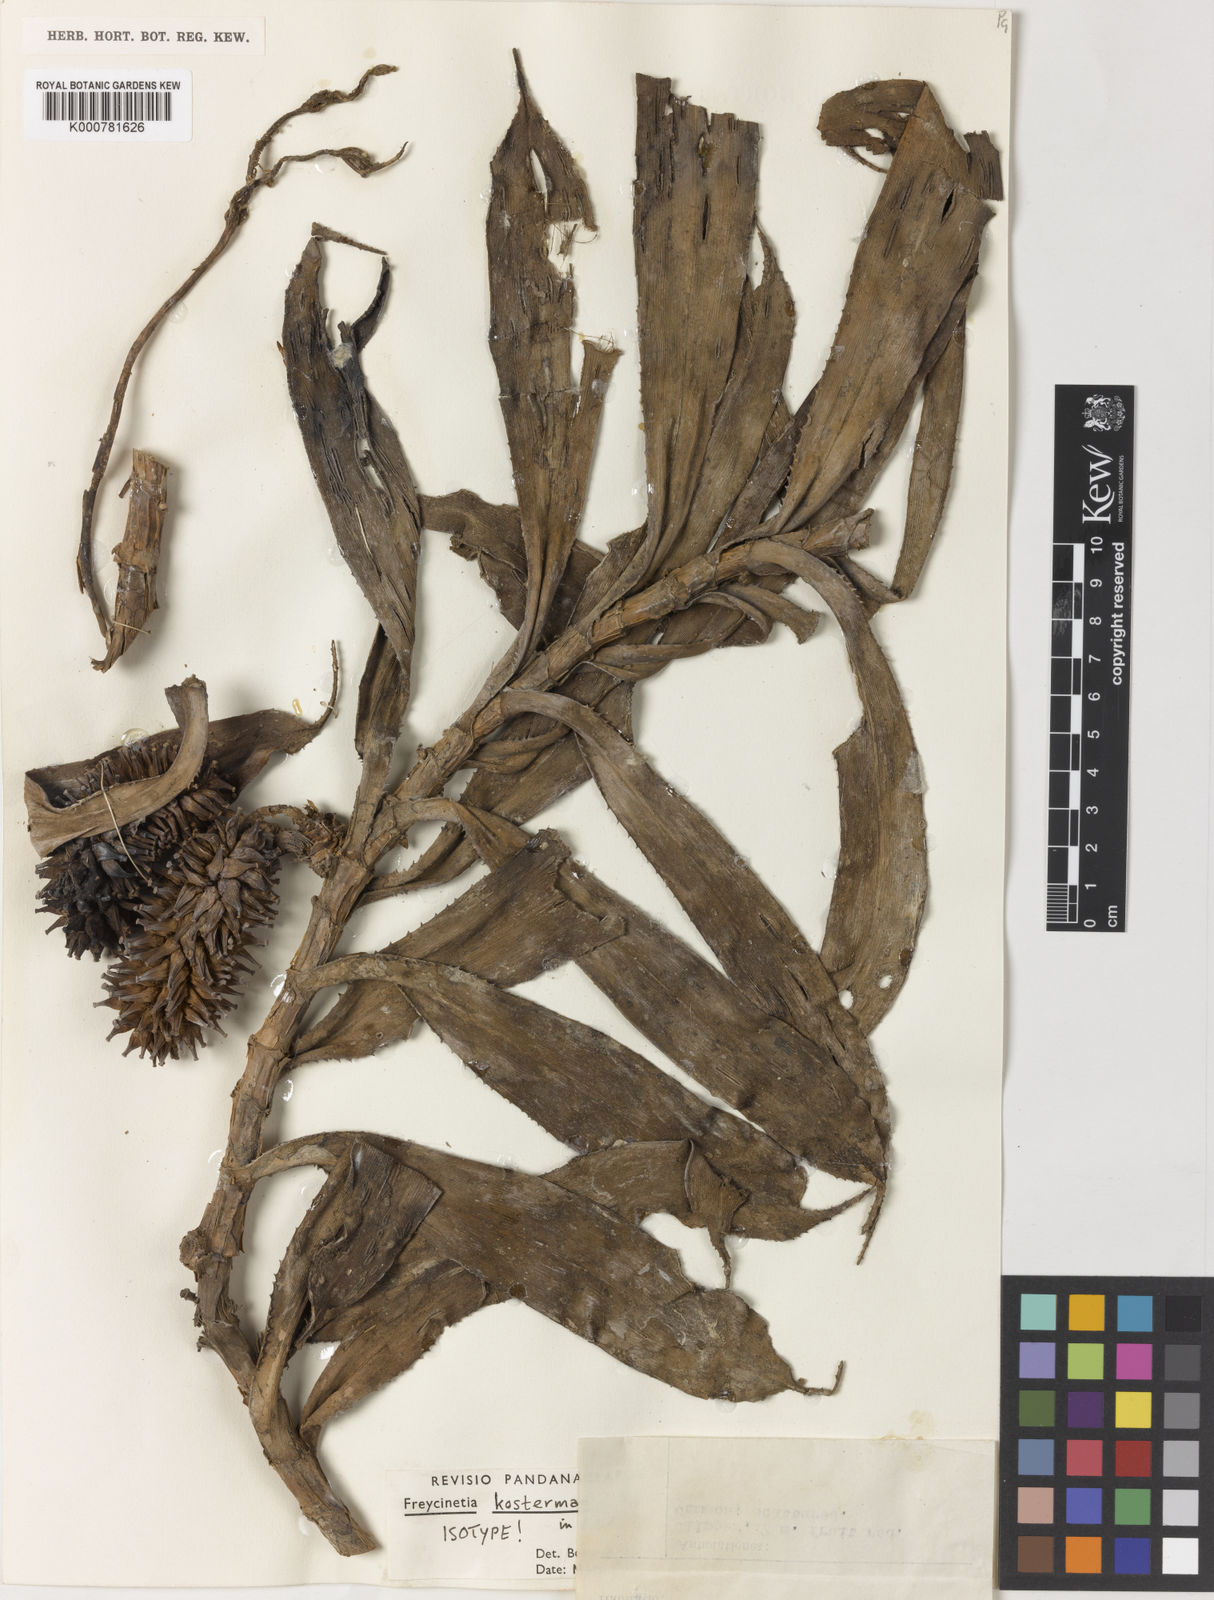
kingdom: Plantae
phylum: Tracheophyta
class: Liliopsida
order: Pandanales
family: Pandanaceae
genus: Freycinetia
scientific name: Freycinetia kostermansii
